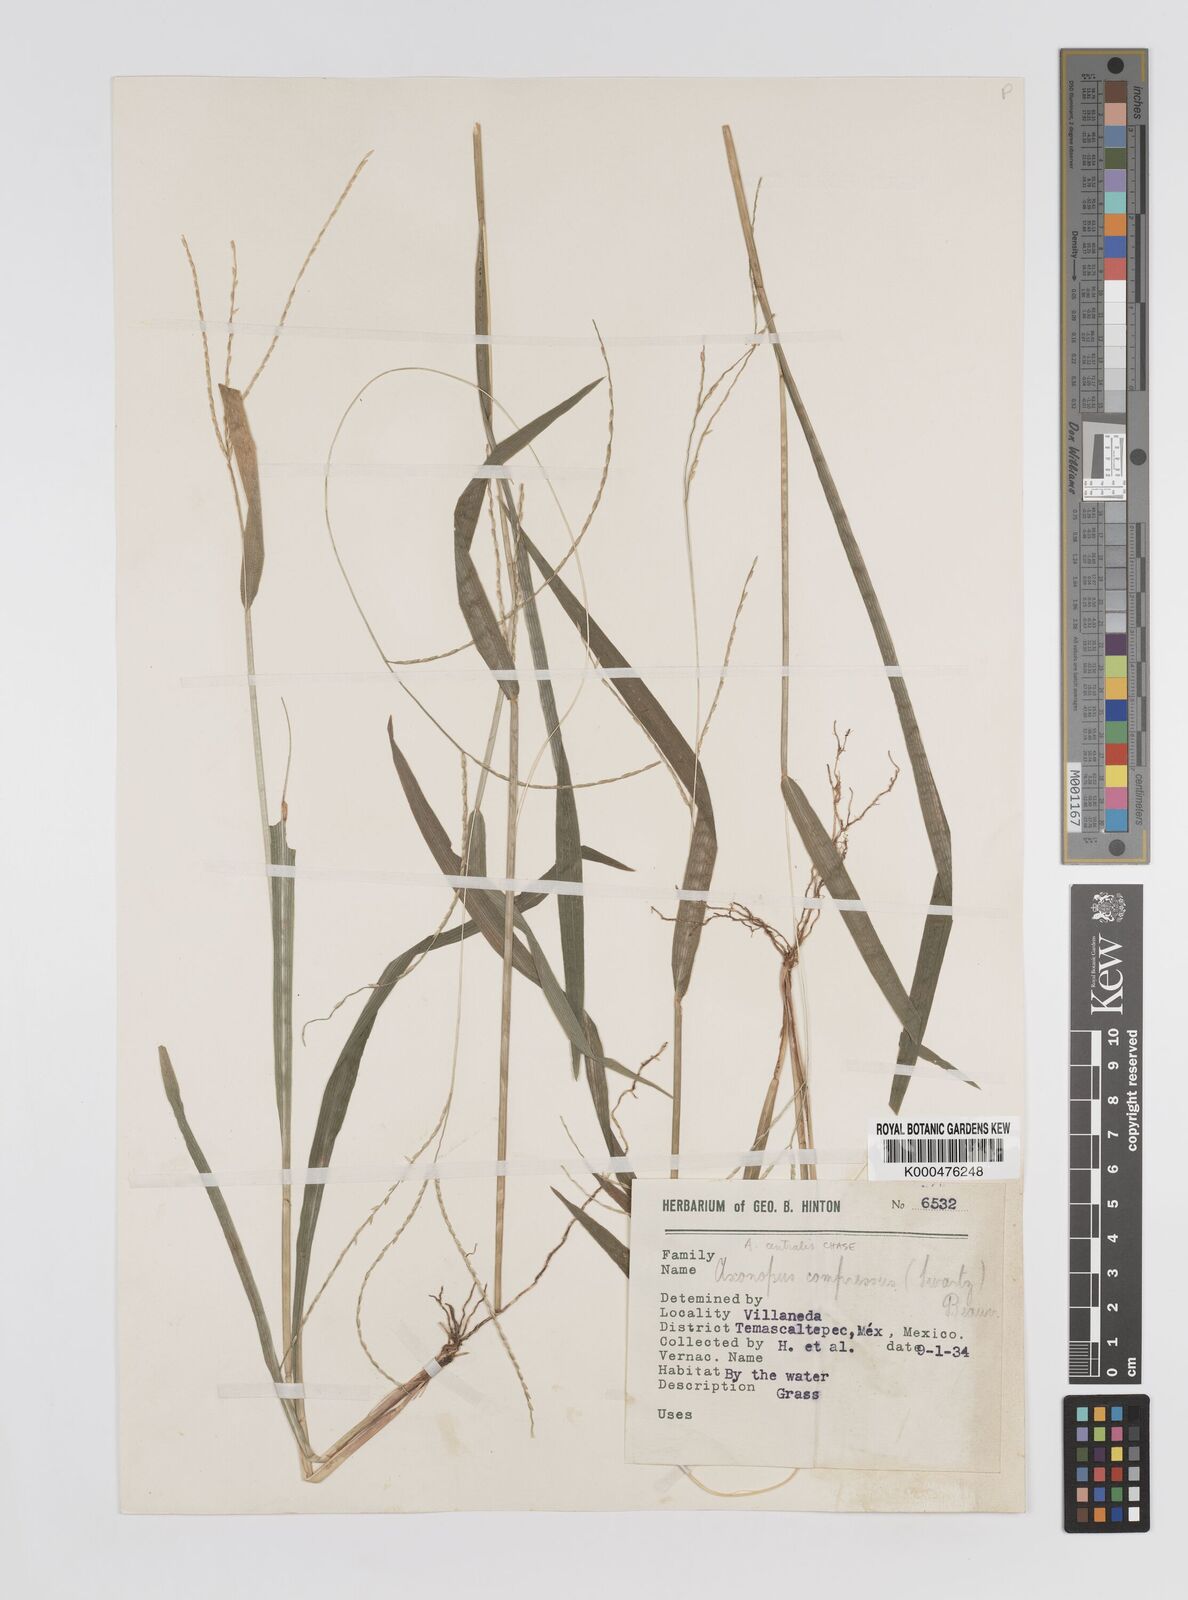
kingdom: Plantae
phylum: Tracheophyta
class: Liliopsida
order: Poales
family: Poaceae
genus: Axonopus
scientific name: Axonopus centralis
